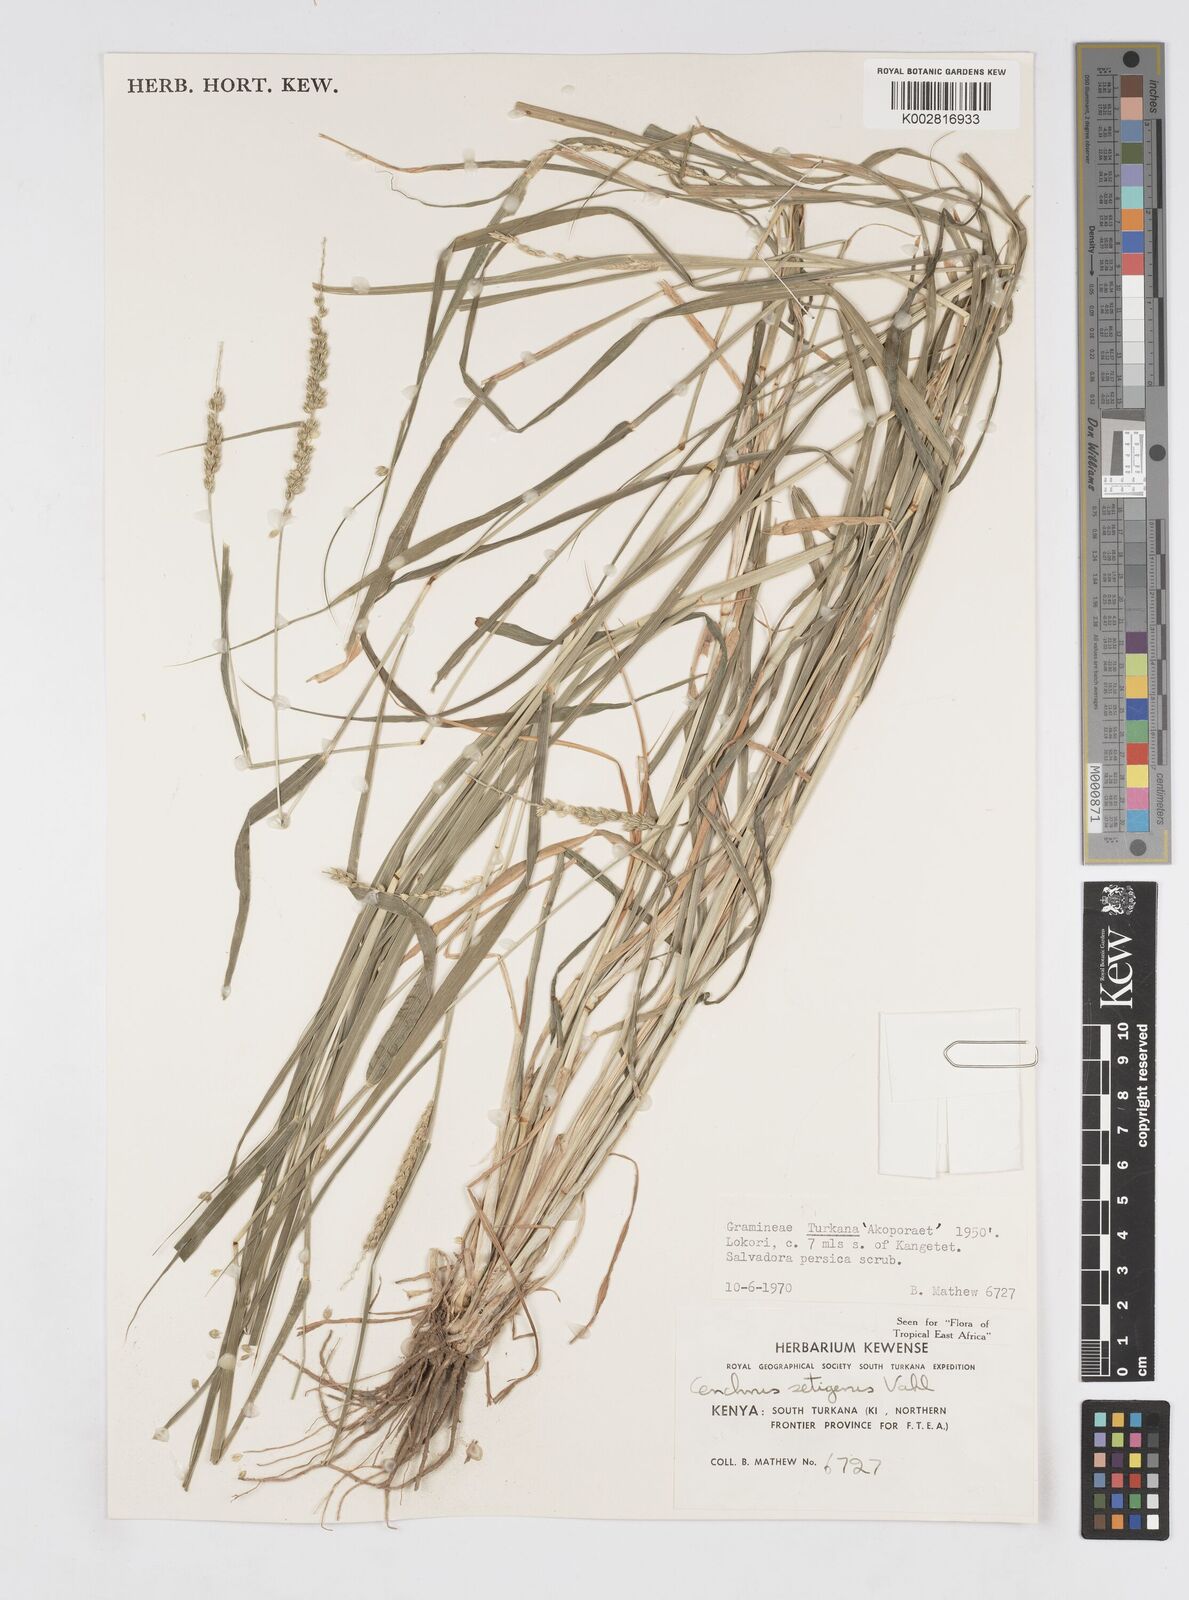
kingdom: Plantae
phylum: Tracheophyta
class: Liliopsida
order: Poales
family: Poaceae
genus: Cenchrus
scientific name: Cenchrus setigerus
